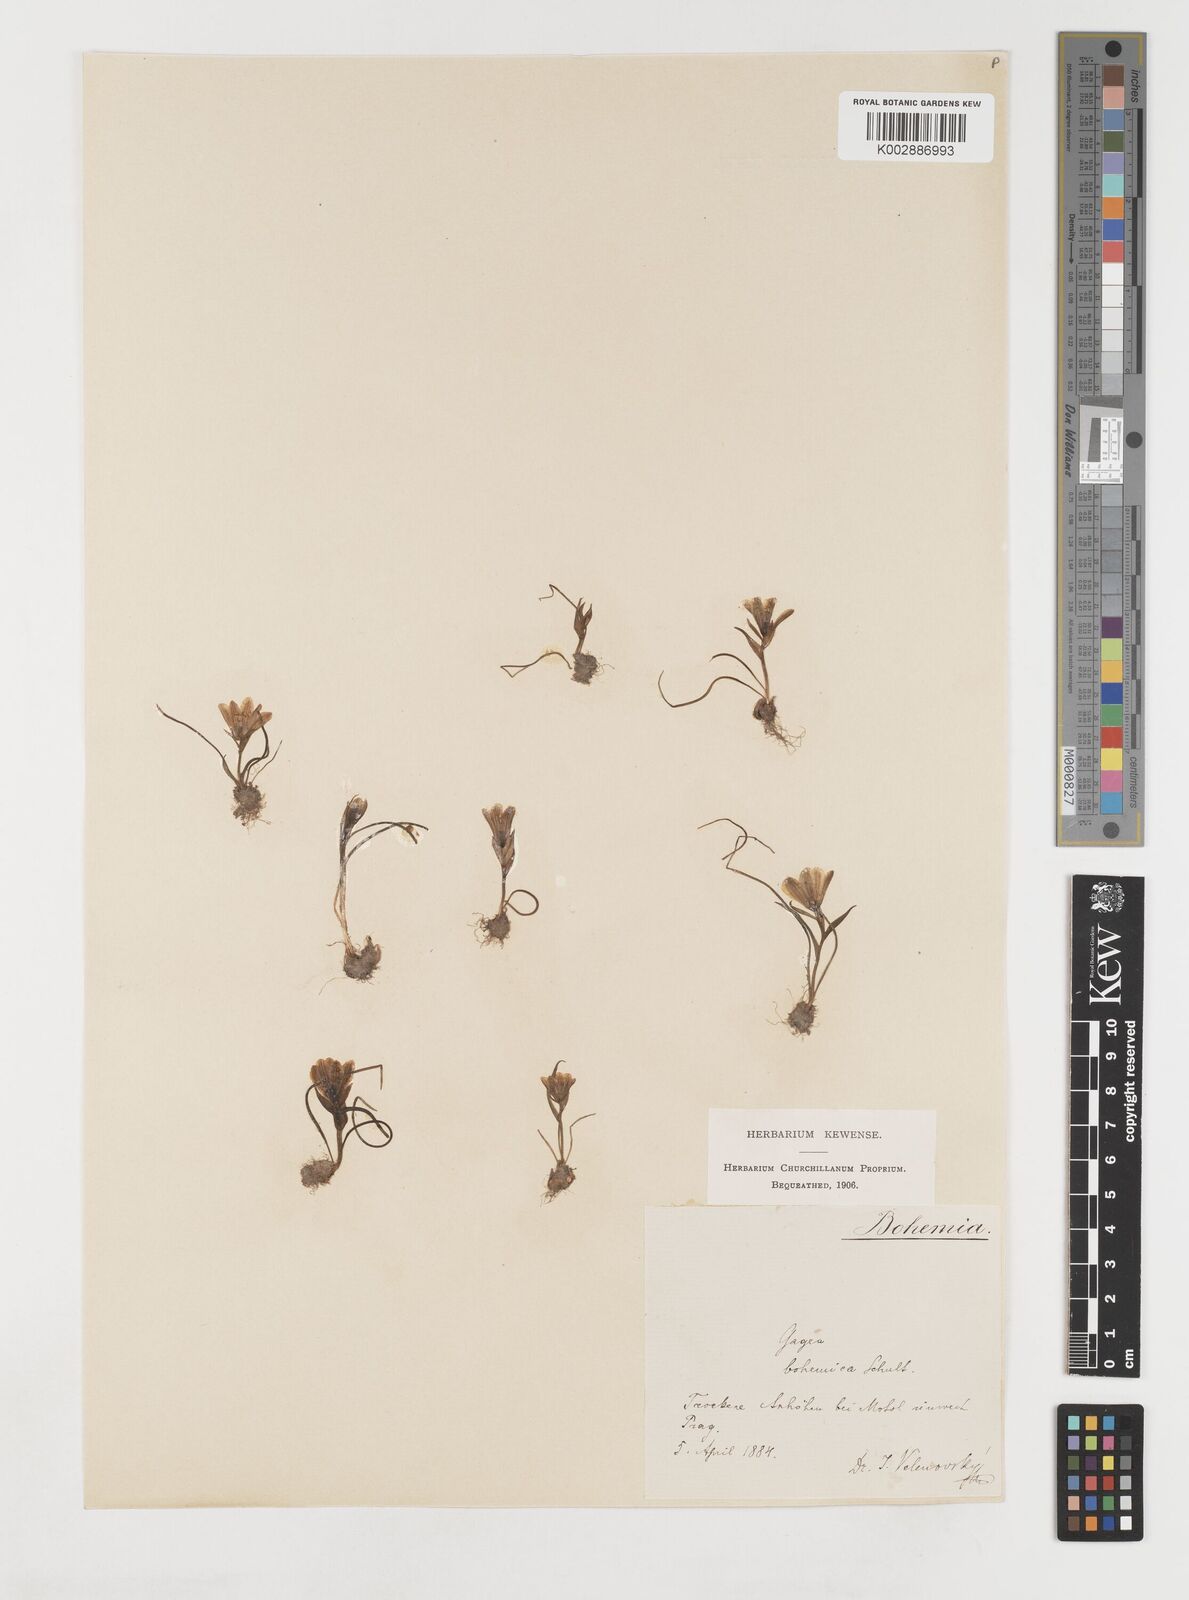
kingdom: Plantae
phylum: Tracheophyta
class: Liliopsida
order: Liliales
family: Liliaceae
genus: Gagea
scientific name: Gagea bohemica
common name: Early star-of-bethlehem
